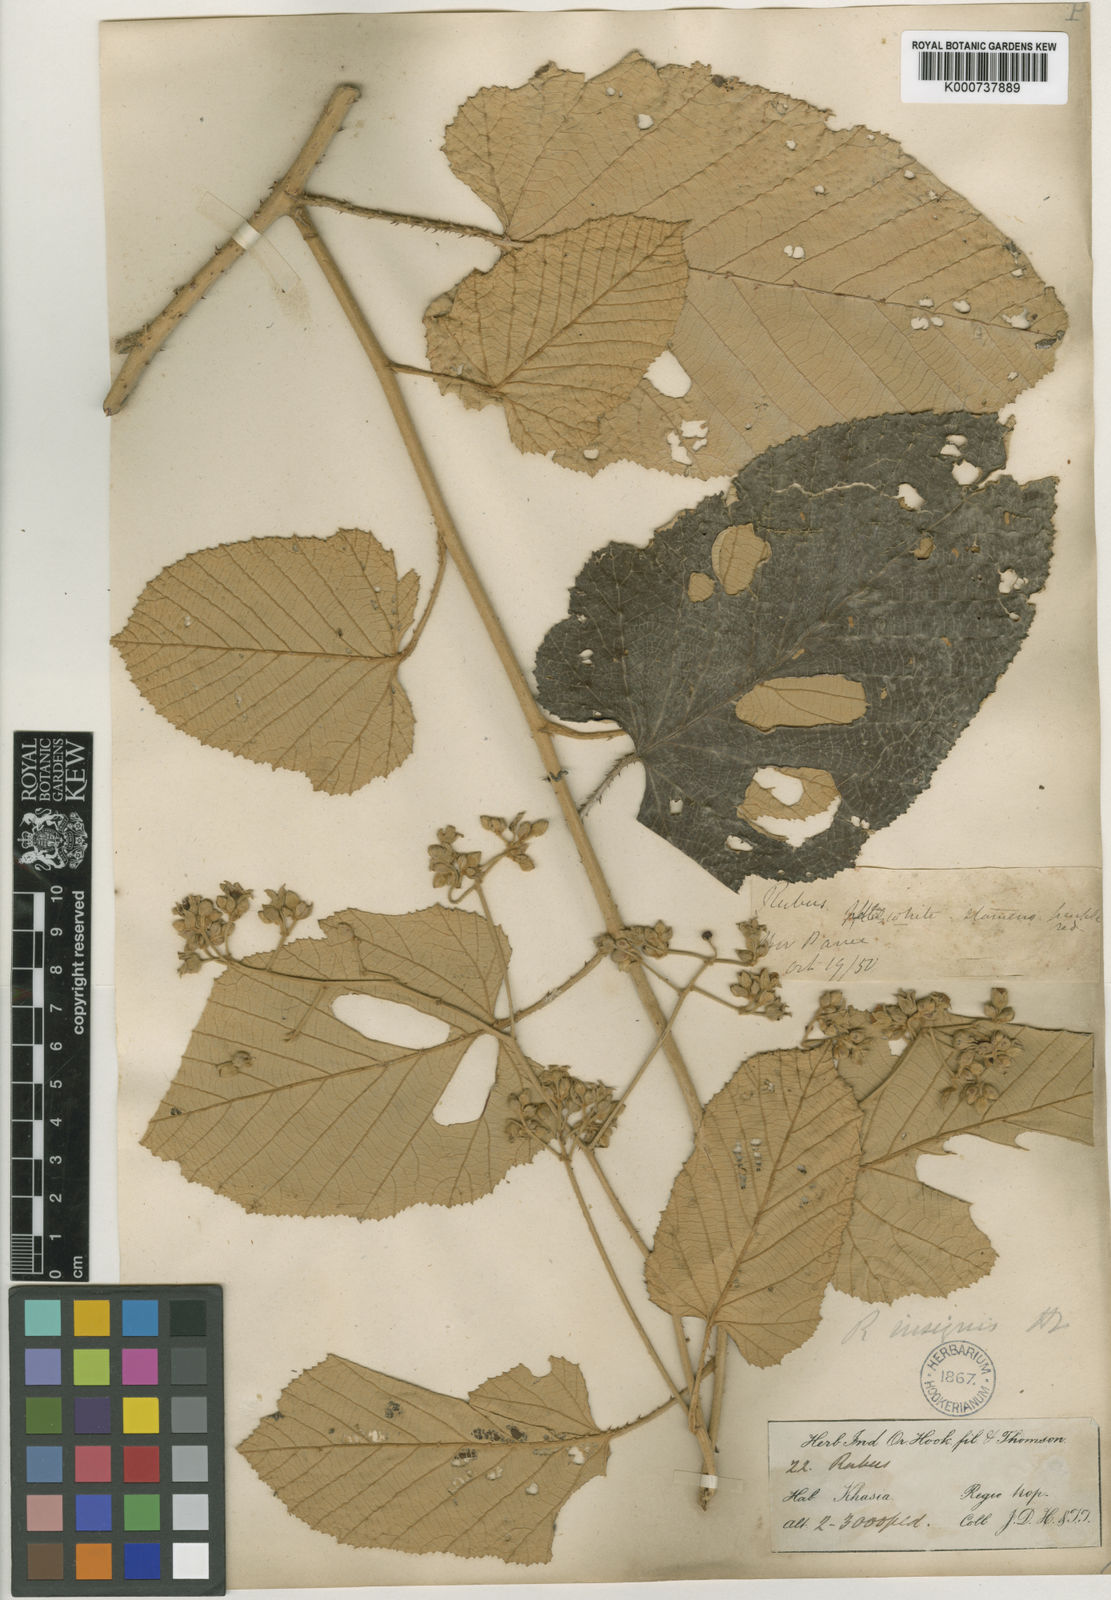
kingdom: Plantae
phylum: Tracheophyta
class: Magnoliopsida
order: Rosales
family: Rosaceae
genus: Rubus
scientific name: Rubus insignis
